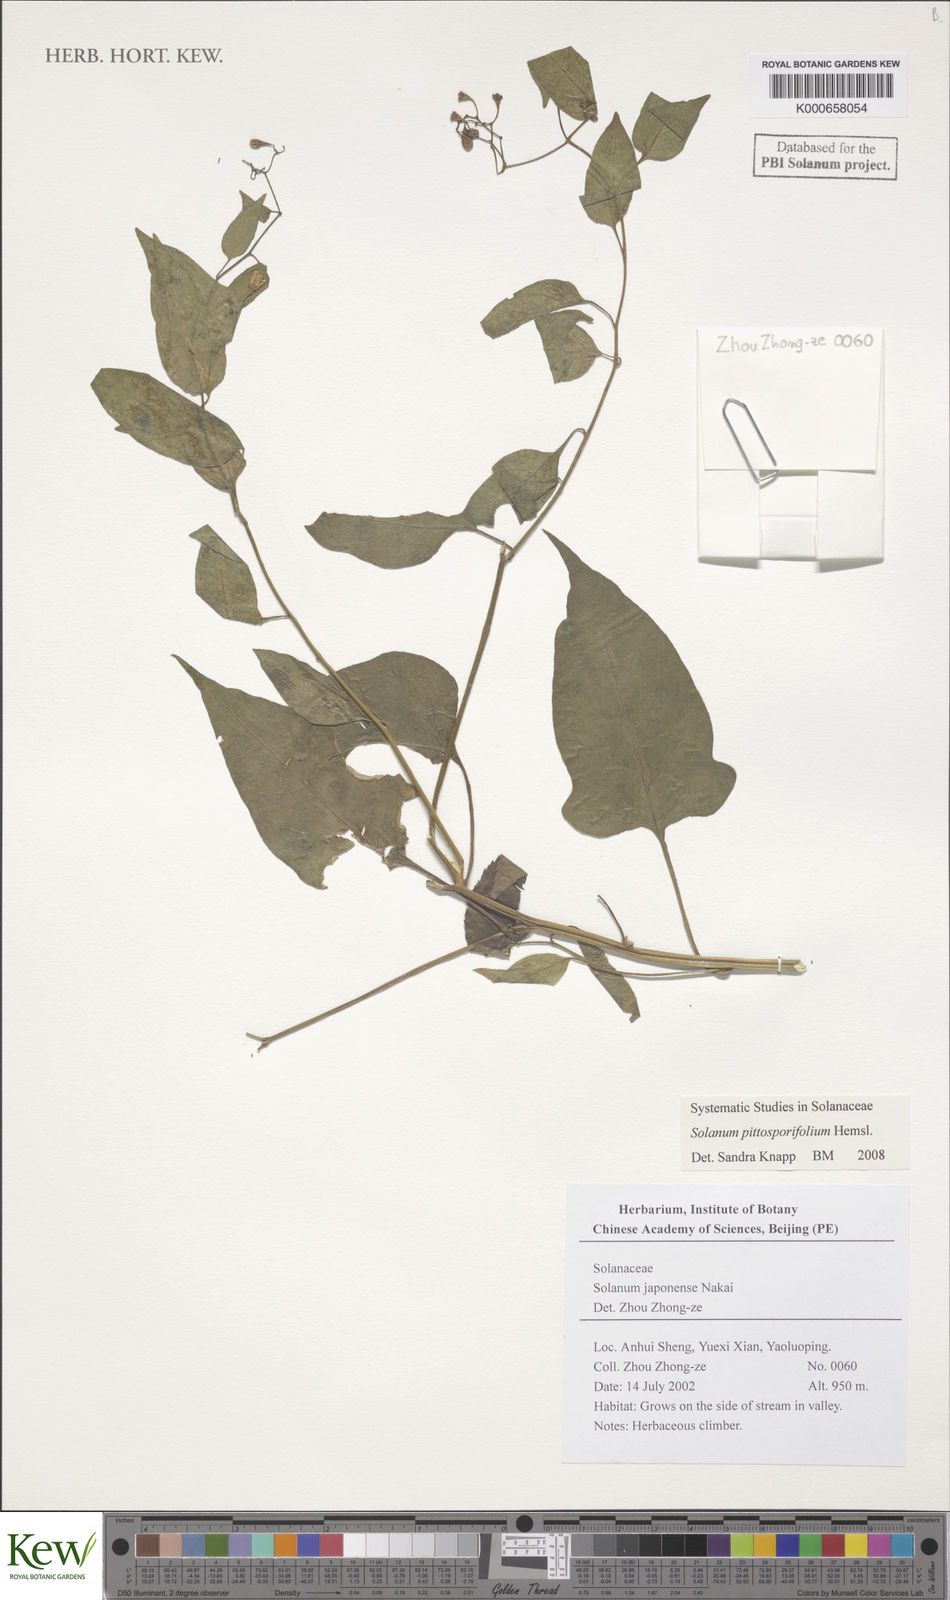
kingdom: Plantae
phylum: Tracheophyta
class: Magnoliopsida
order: Solanales
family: Solanaceae
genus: Solanum
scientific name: Solanum pittosporifolium
